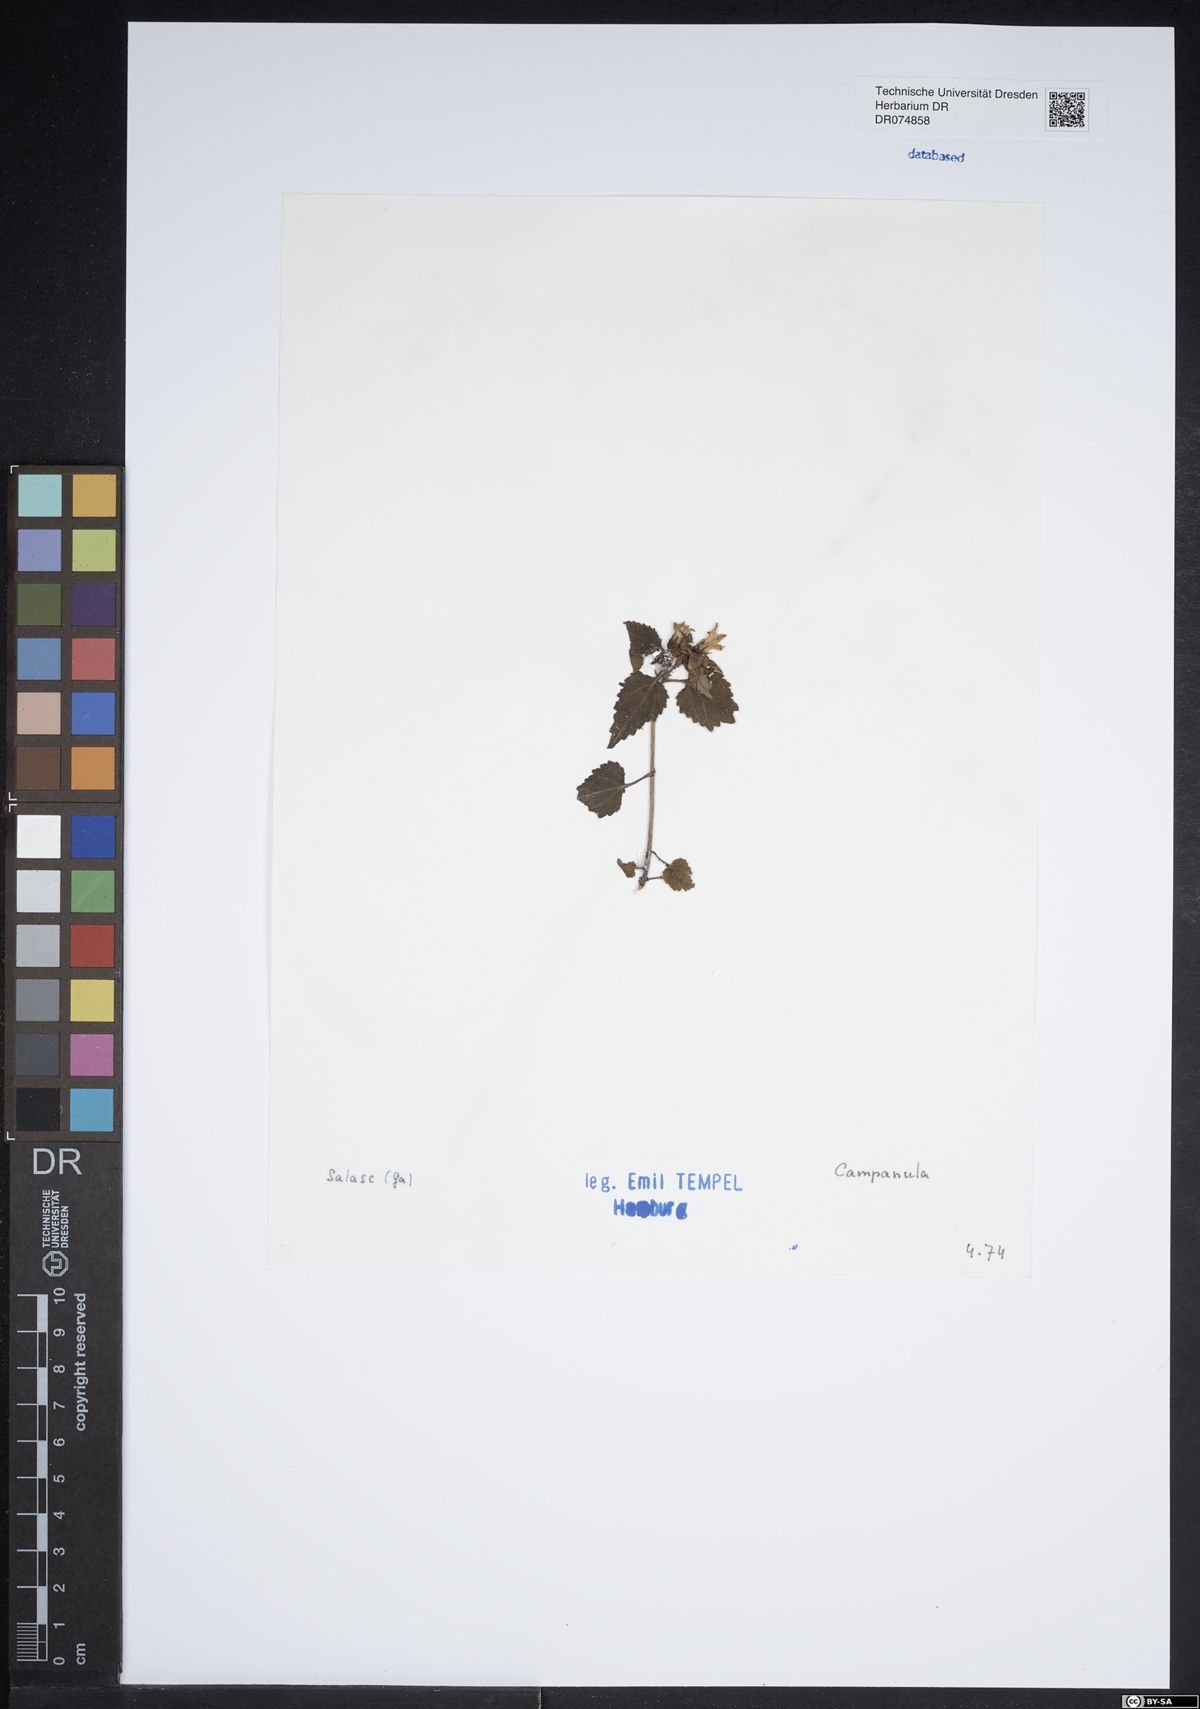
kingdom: Plantae
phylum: Tracheophyta
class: Magnoliopsida
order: Asterales
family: Campanulaceae
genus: Campanula
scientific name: Campanula
